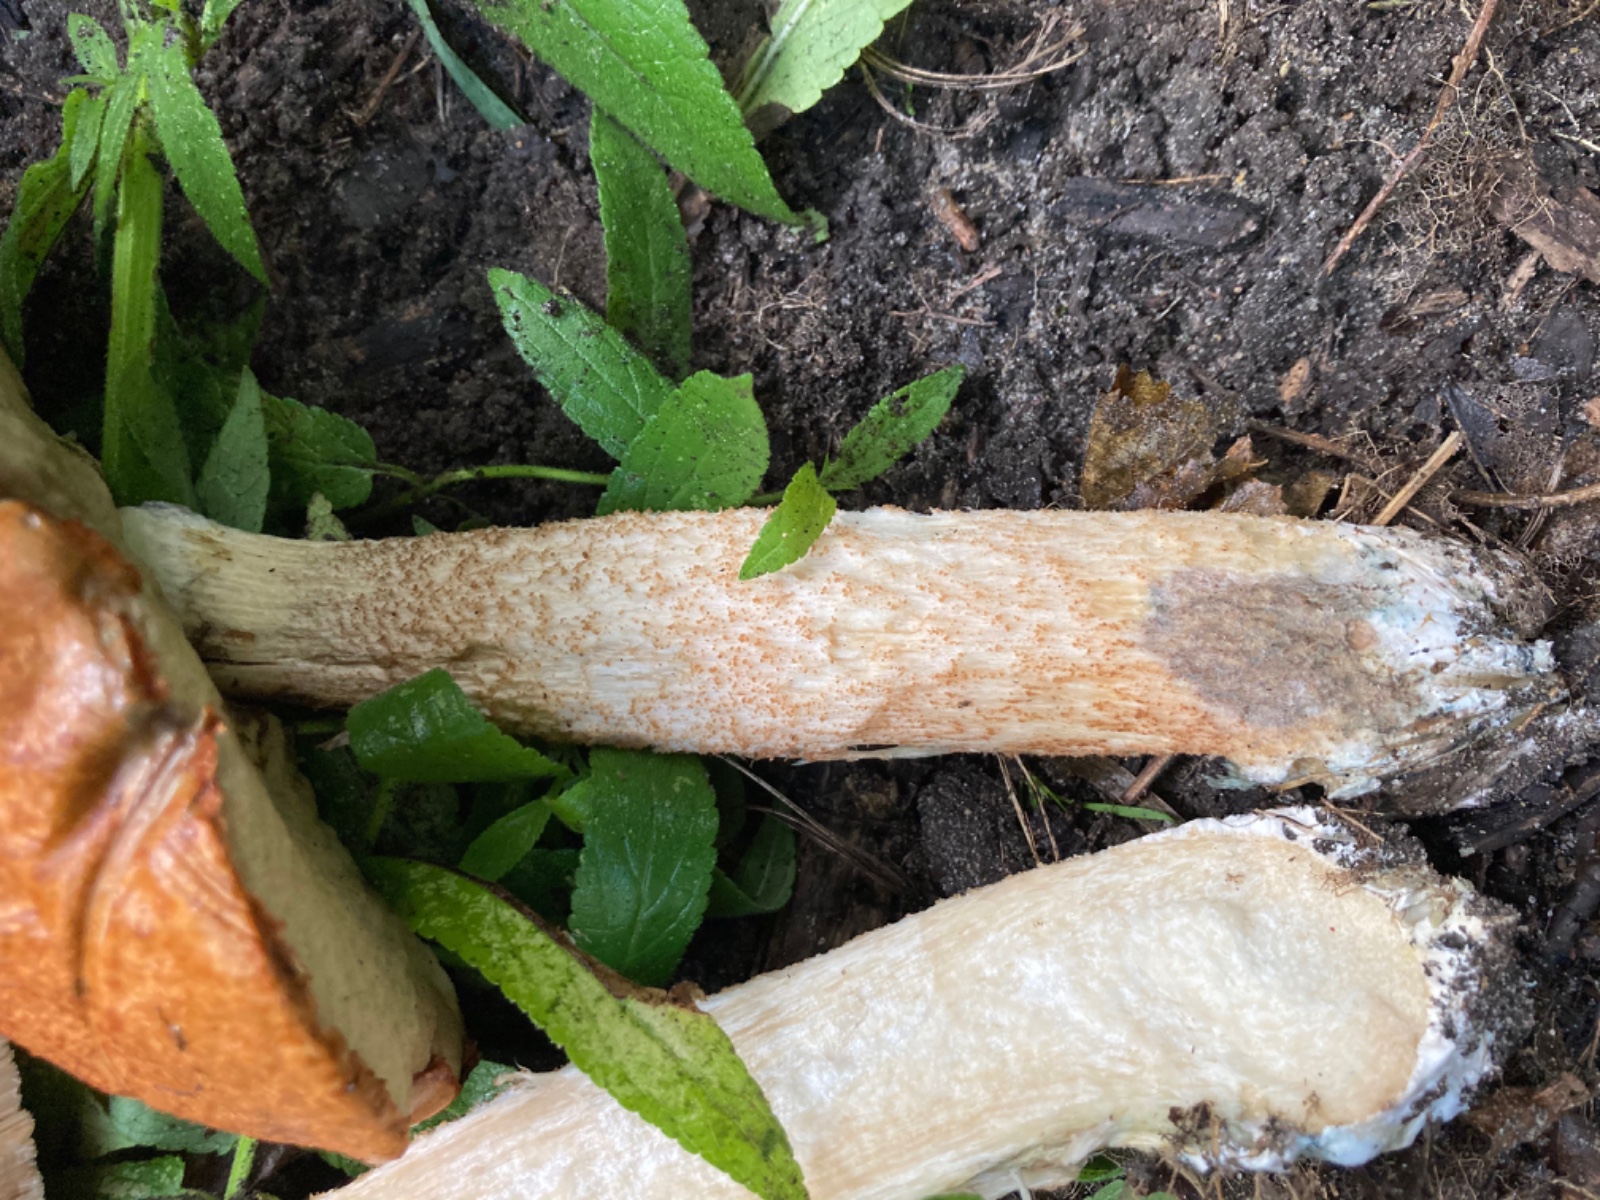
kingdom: Fungi
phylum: Basidiomycota
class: Agaricomycetes
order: Boletales
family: Boletaceae
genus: Leccinum
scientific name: Leccinum aurantiacum
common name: rustrød skælrørhat
